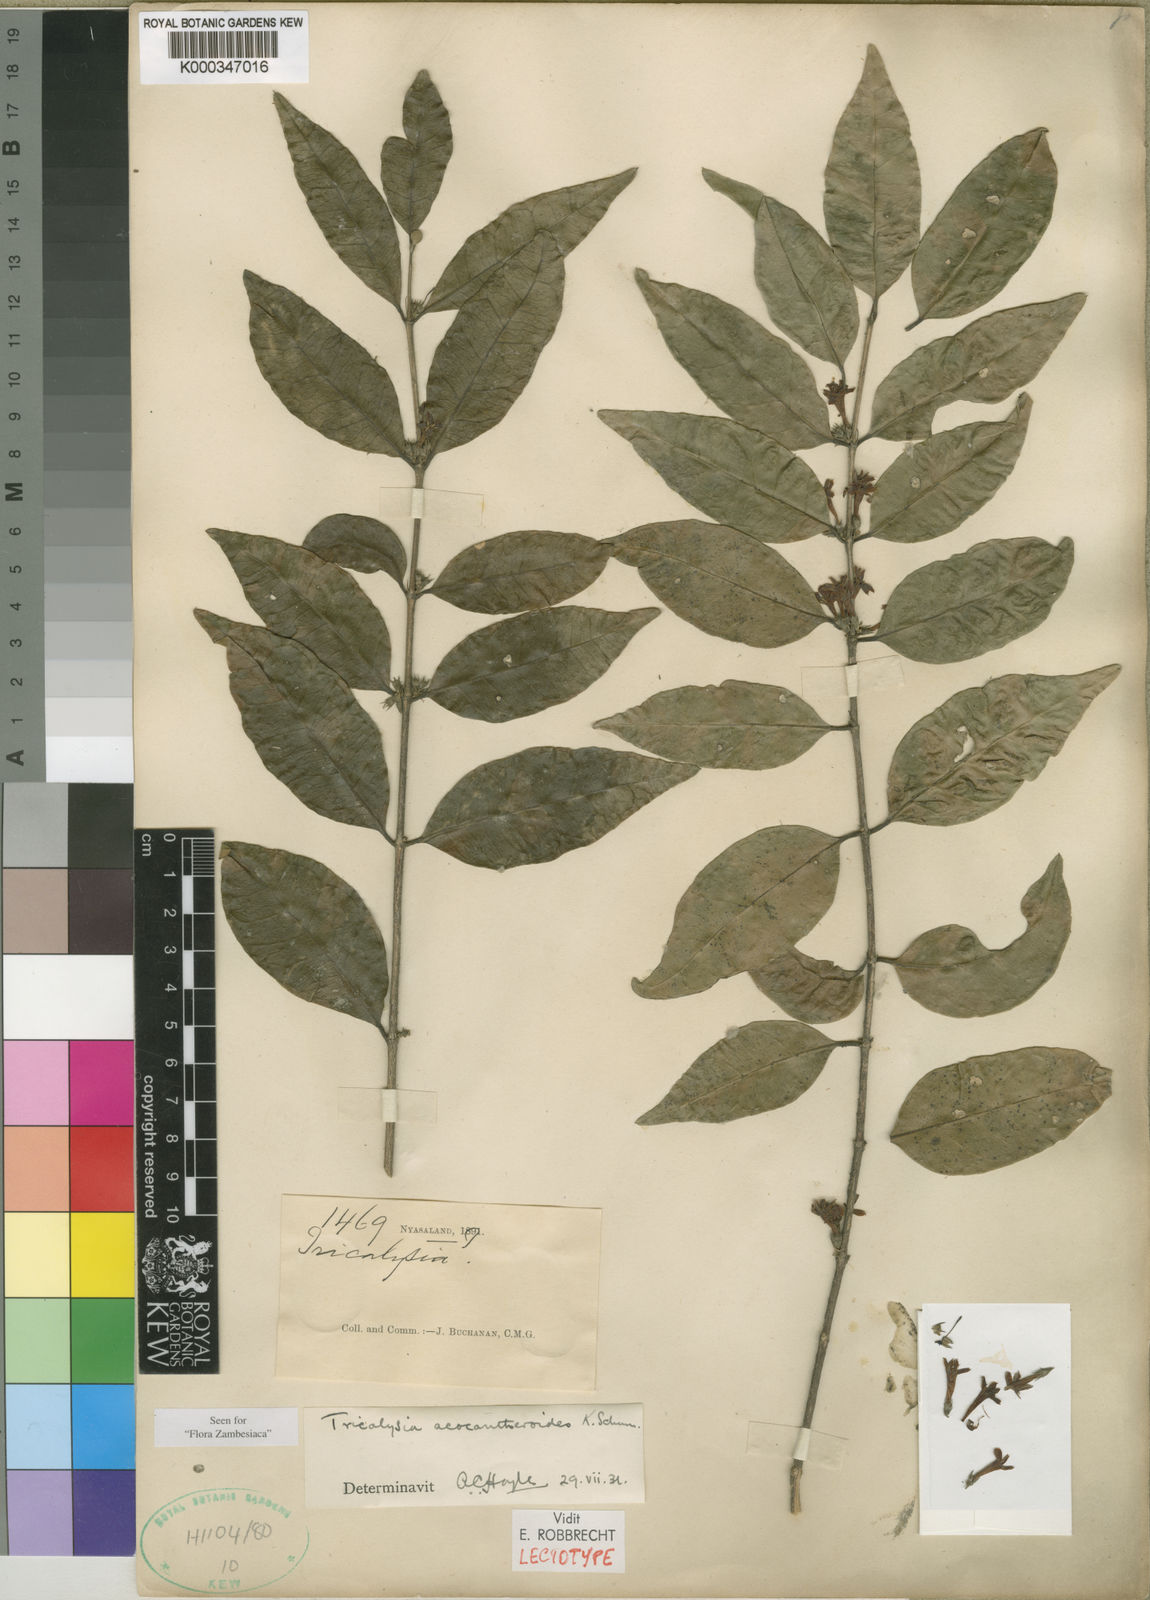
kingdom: Plantae
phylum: Tracheophyta
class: Magnoliopsida
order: Gentianales
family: Rubiaceae
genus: Tricalysia
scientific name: Tricalysia acocantheroides
